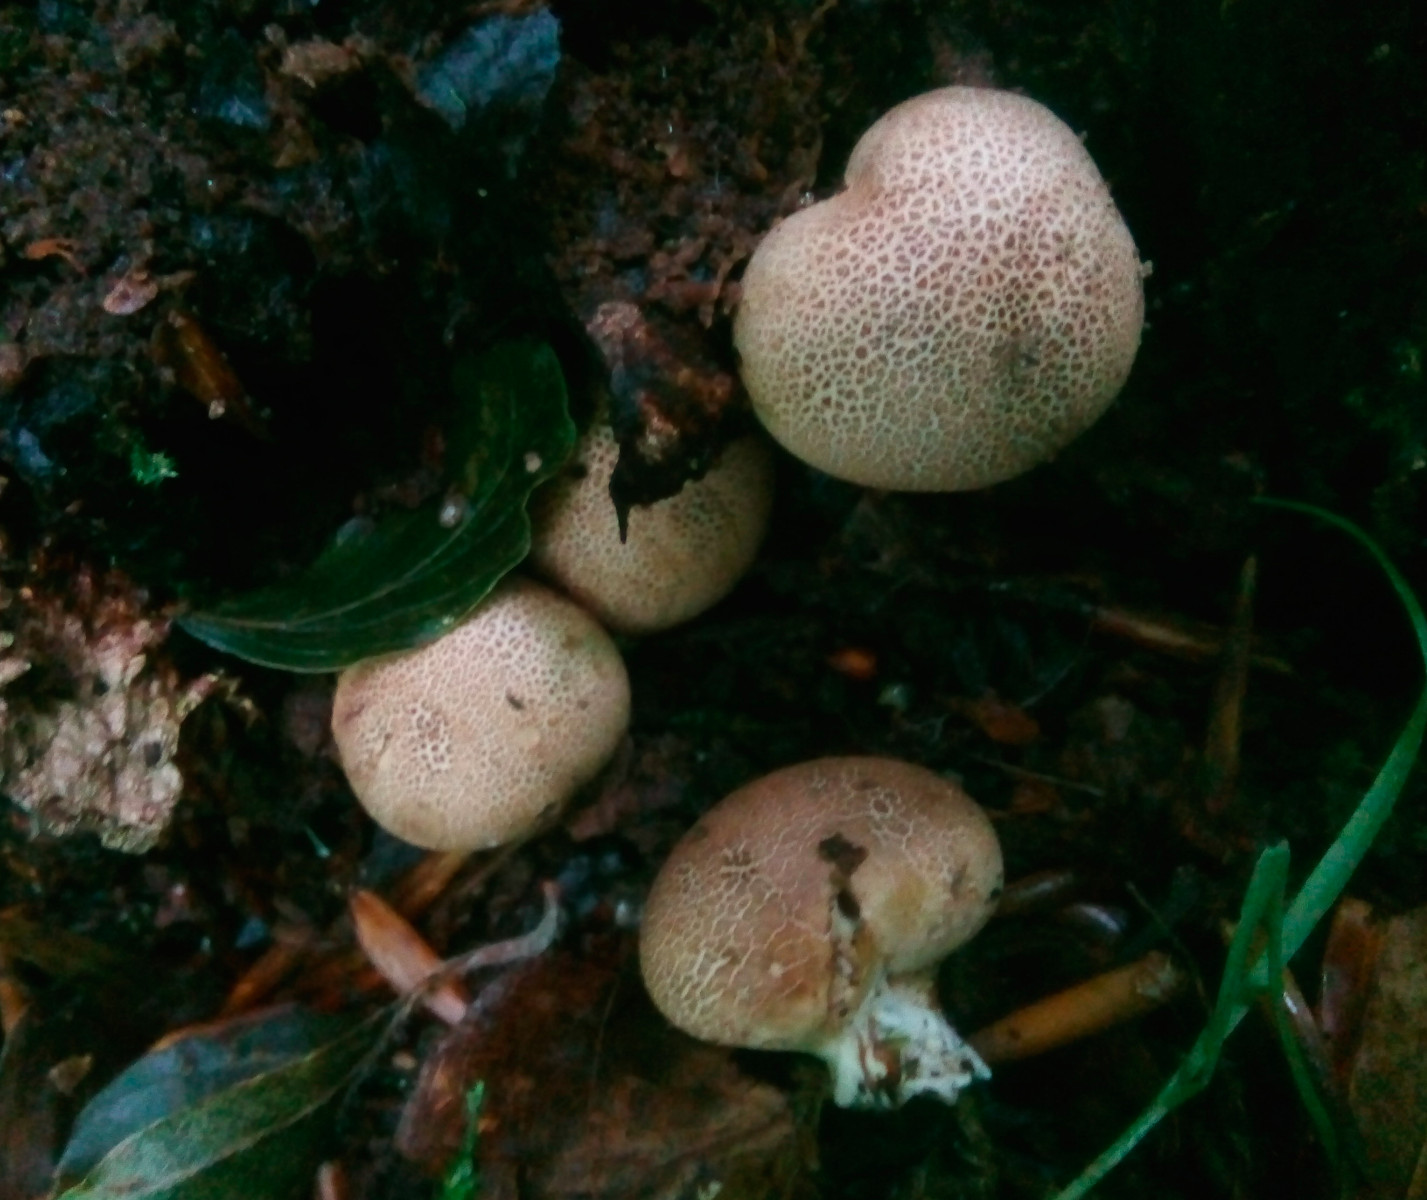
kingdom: Fungi
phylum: Basidiomycota
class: Agaricomycetes
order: Boletales
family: Sclerodermataceae
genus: Scleroderma
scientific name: Scleroderma areolatum
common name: plettet bruskbold
